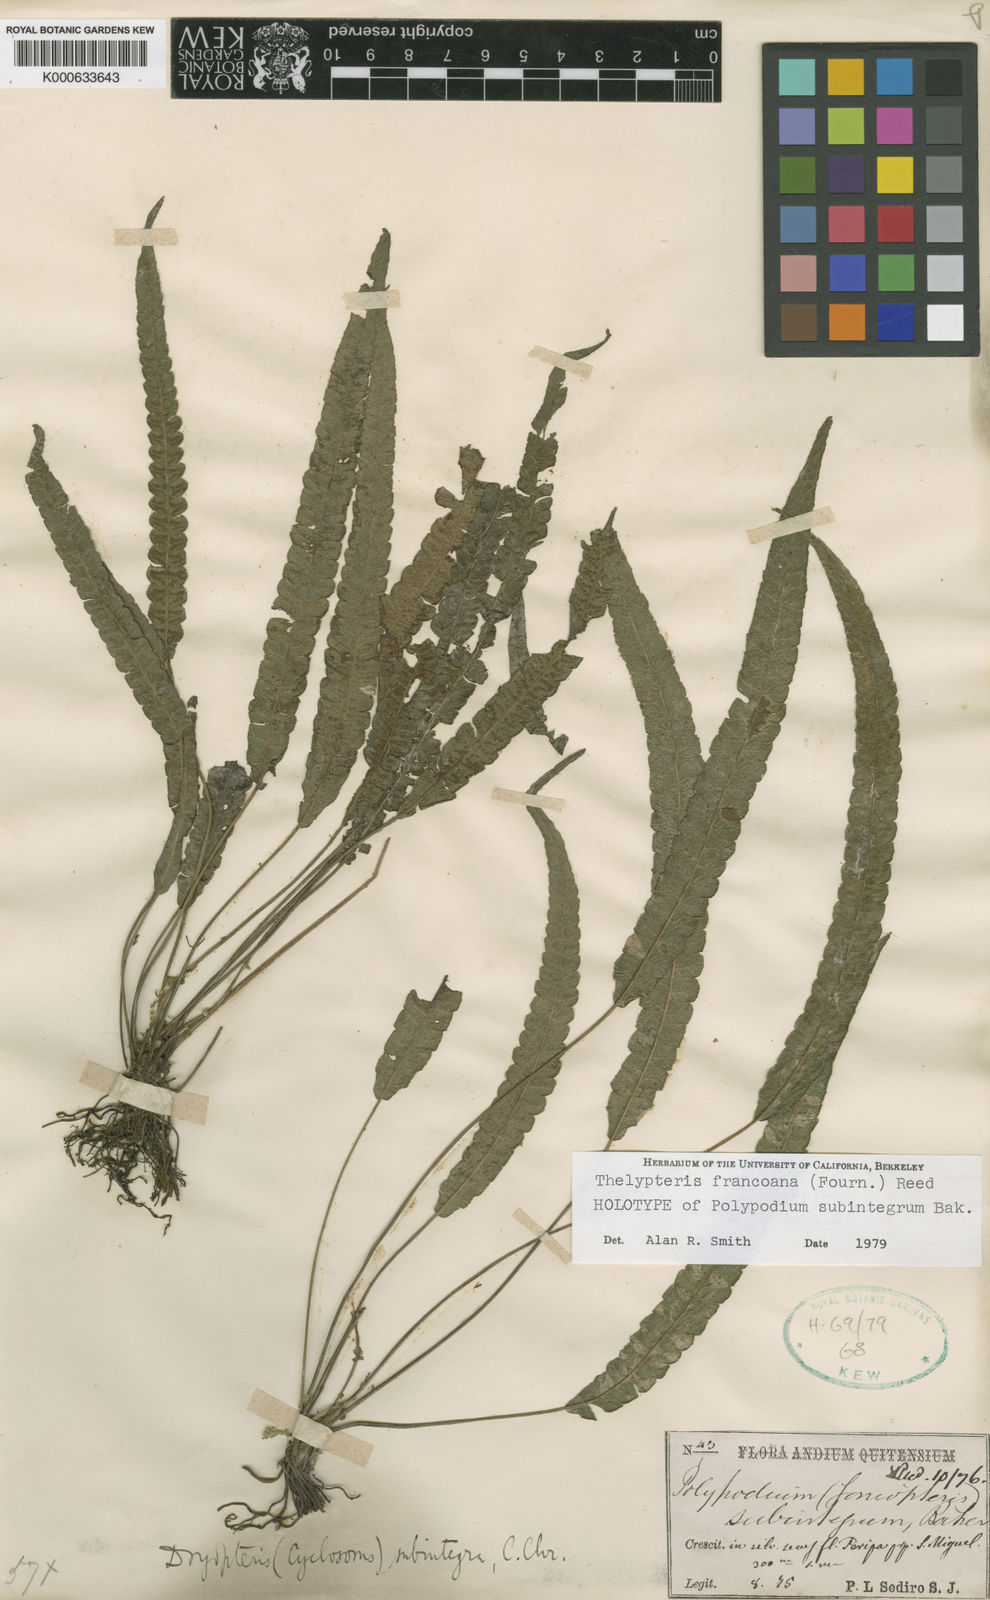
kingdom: Plantae
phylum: Tracheophyta
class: Polypodiopsida
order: Polypodiales
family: Thelypteridaceae
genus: Goniopteris
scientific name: Goniopteris
